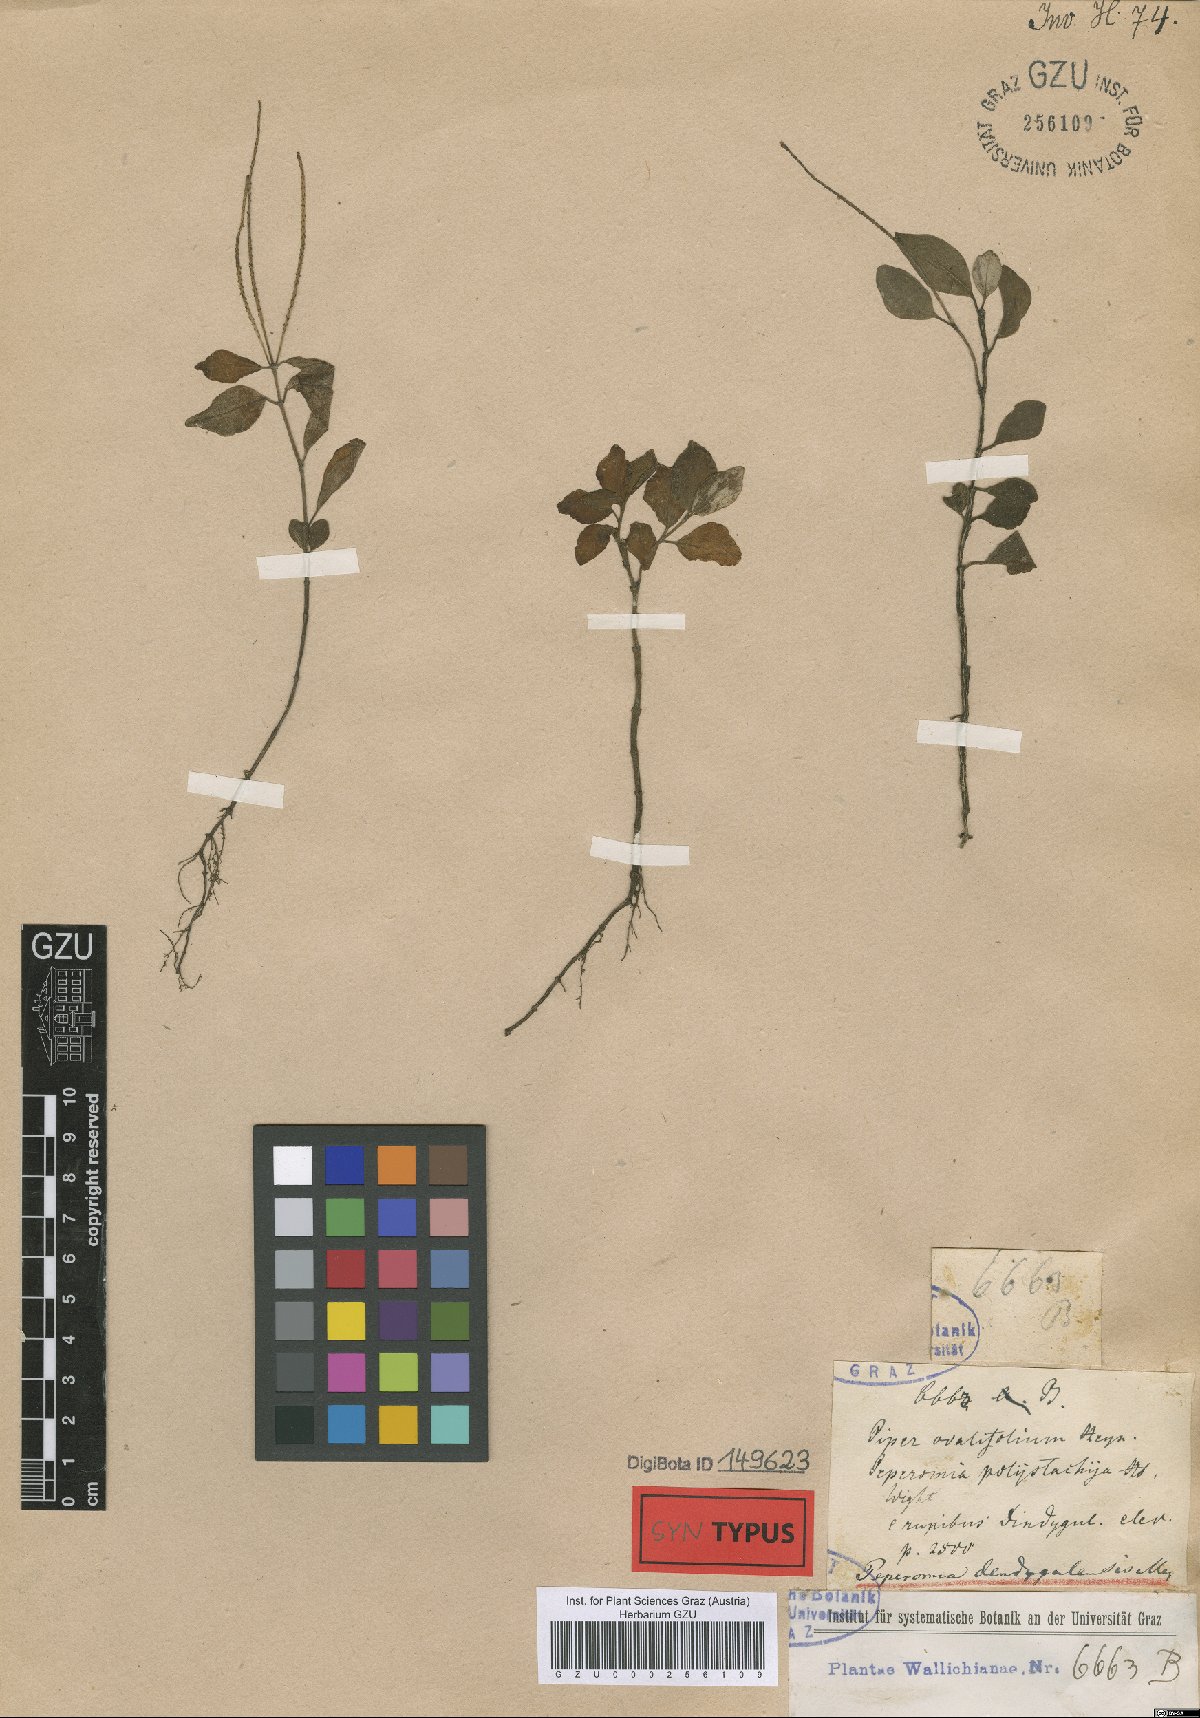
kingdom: Plantae
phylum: Tracheophyta
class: Magnoliopsida
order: Piperales
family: Piperaceae
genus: Peperomia
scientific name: Peperomia leptostachya
